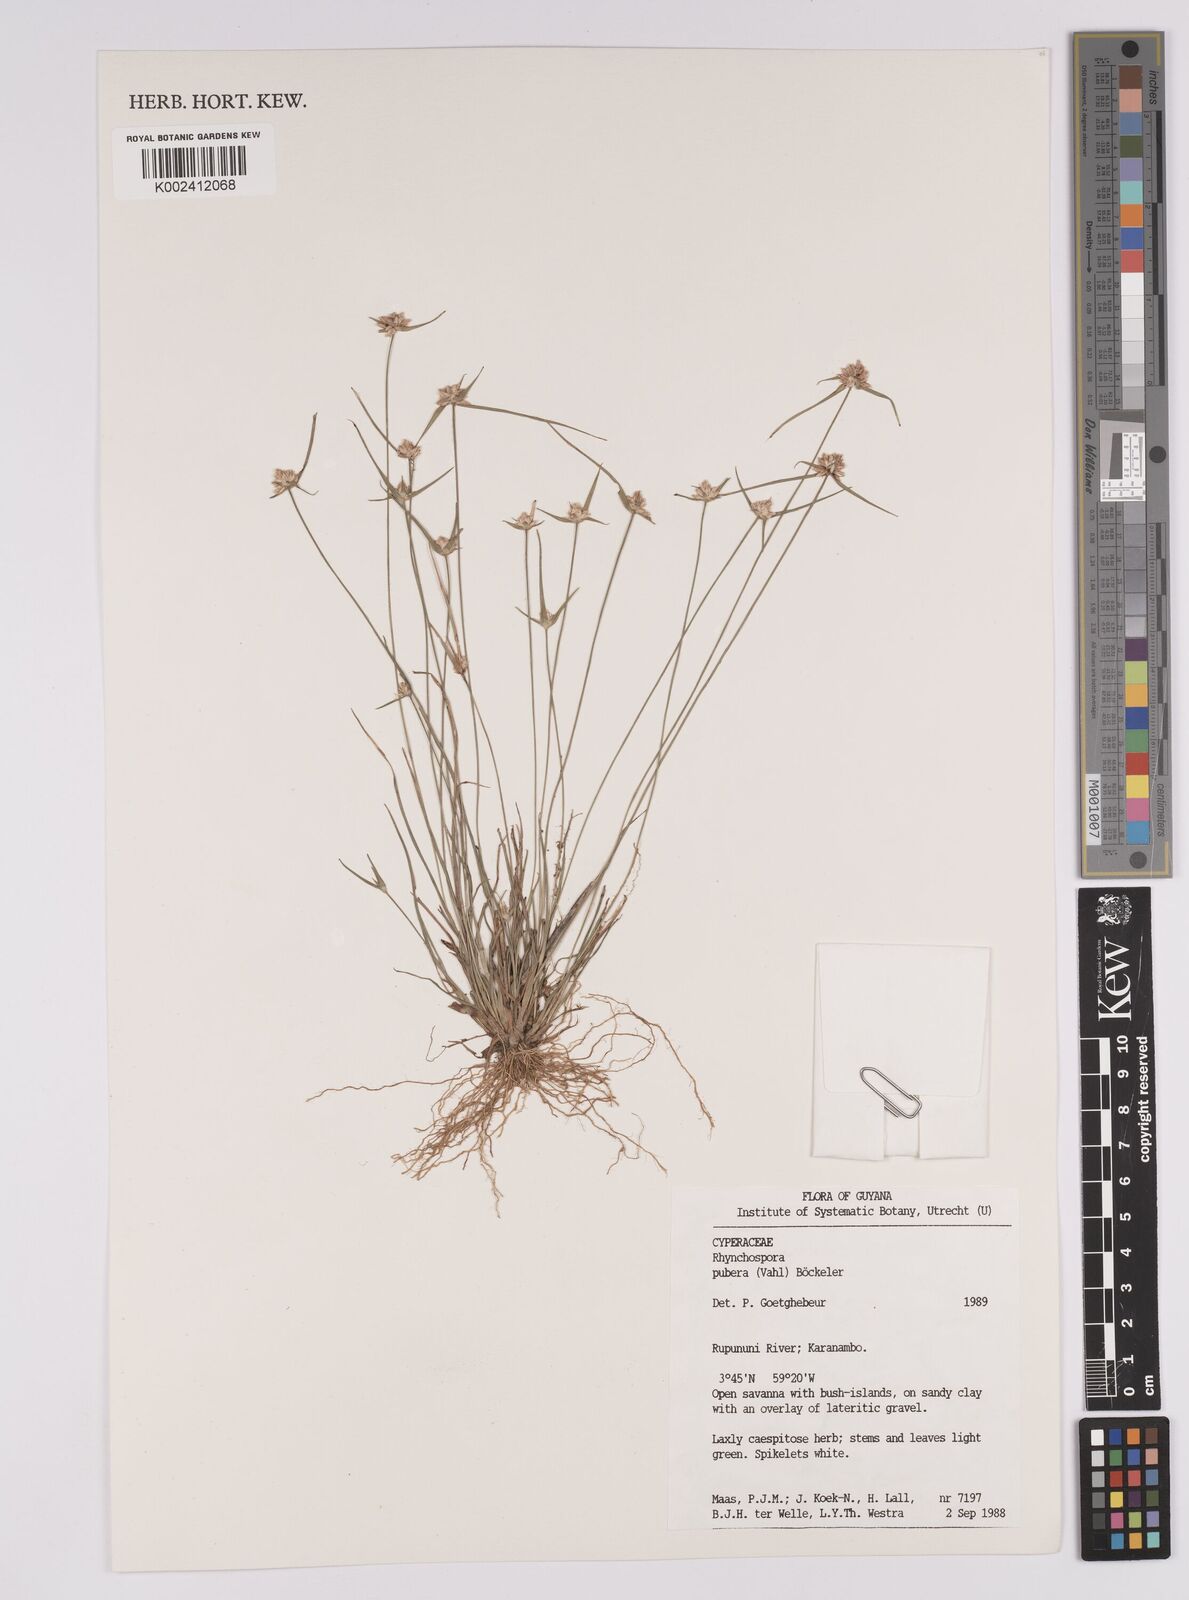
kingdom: Plantae
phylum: Tracheophyta
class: Liliopsida
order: Poales
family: Cyperaceae
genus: Rhynchospora
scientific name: Rhynchospora pubera
